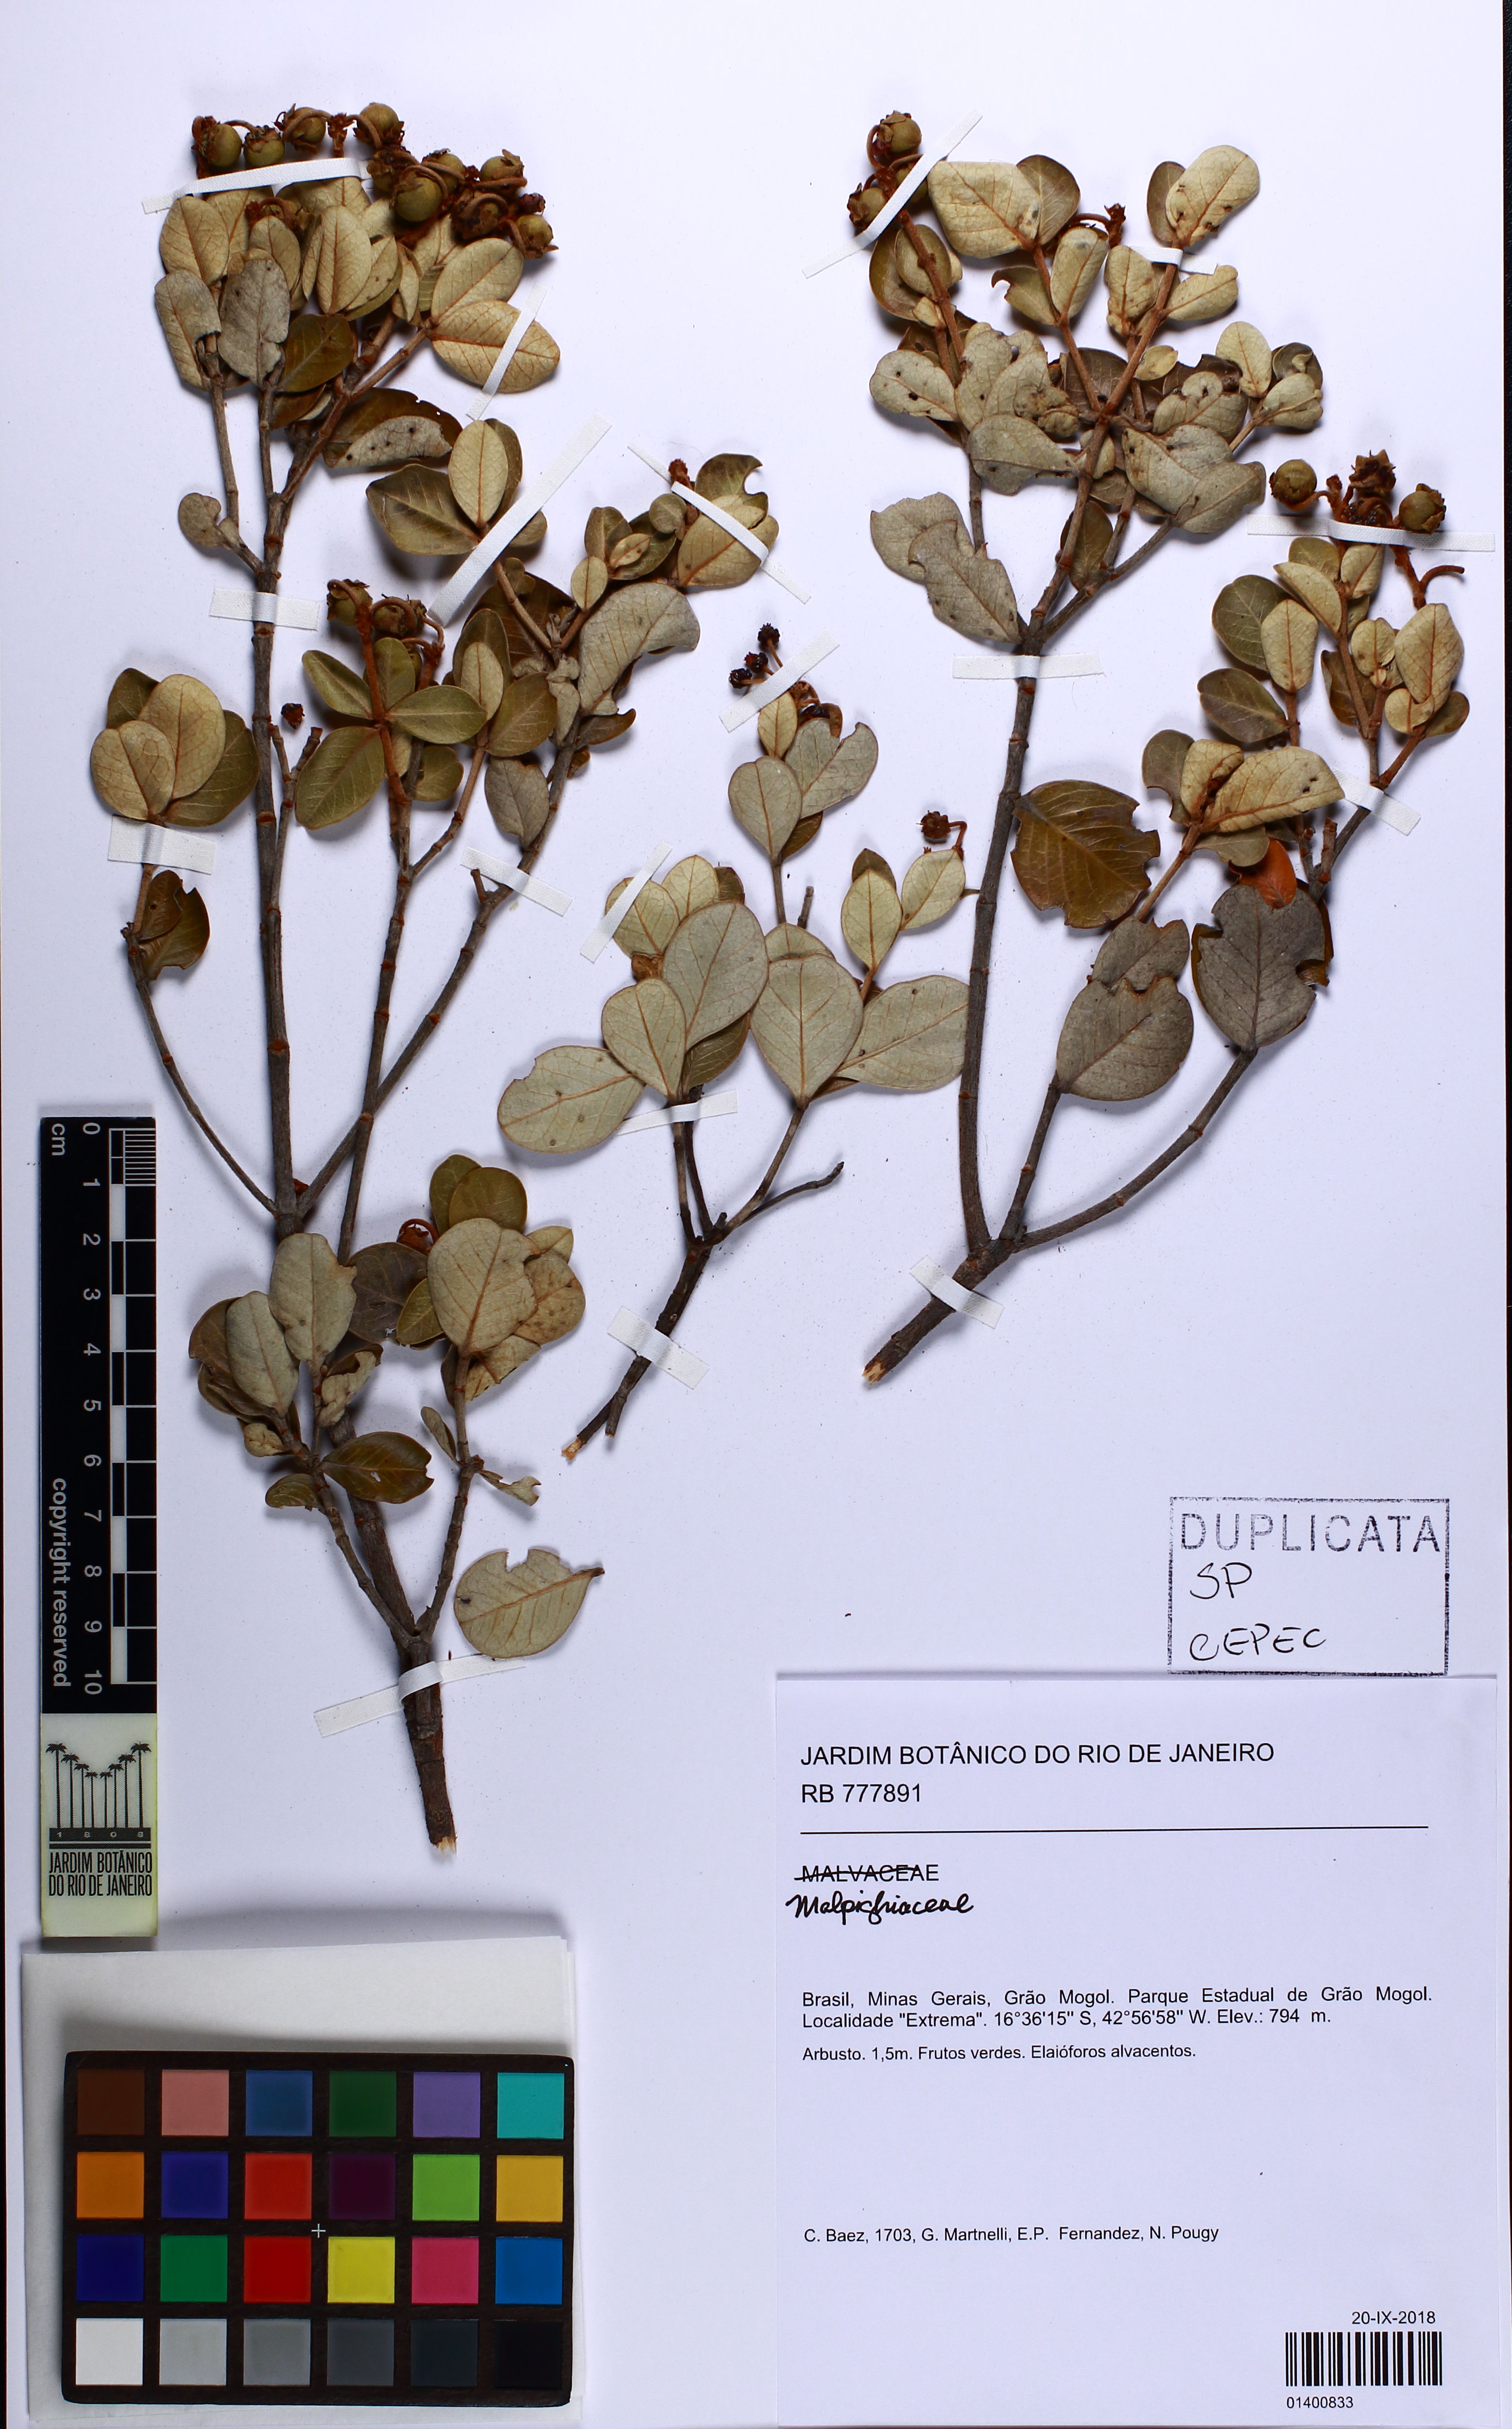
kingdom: Plantae
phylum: Tracheophyta
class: Magnoliopsida
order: Malpighiales
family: Malpighiaceae
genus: Byrsonima
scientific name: Byrsonima
